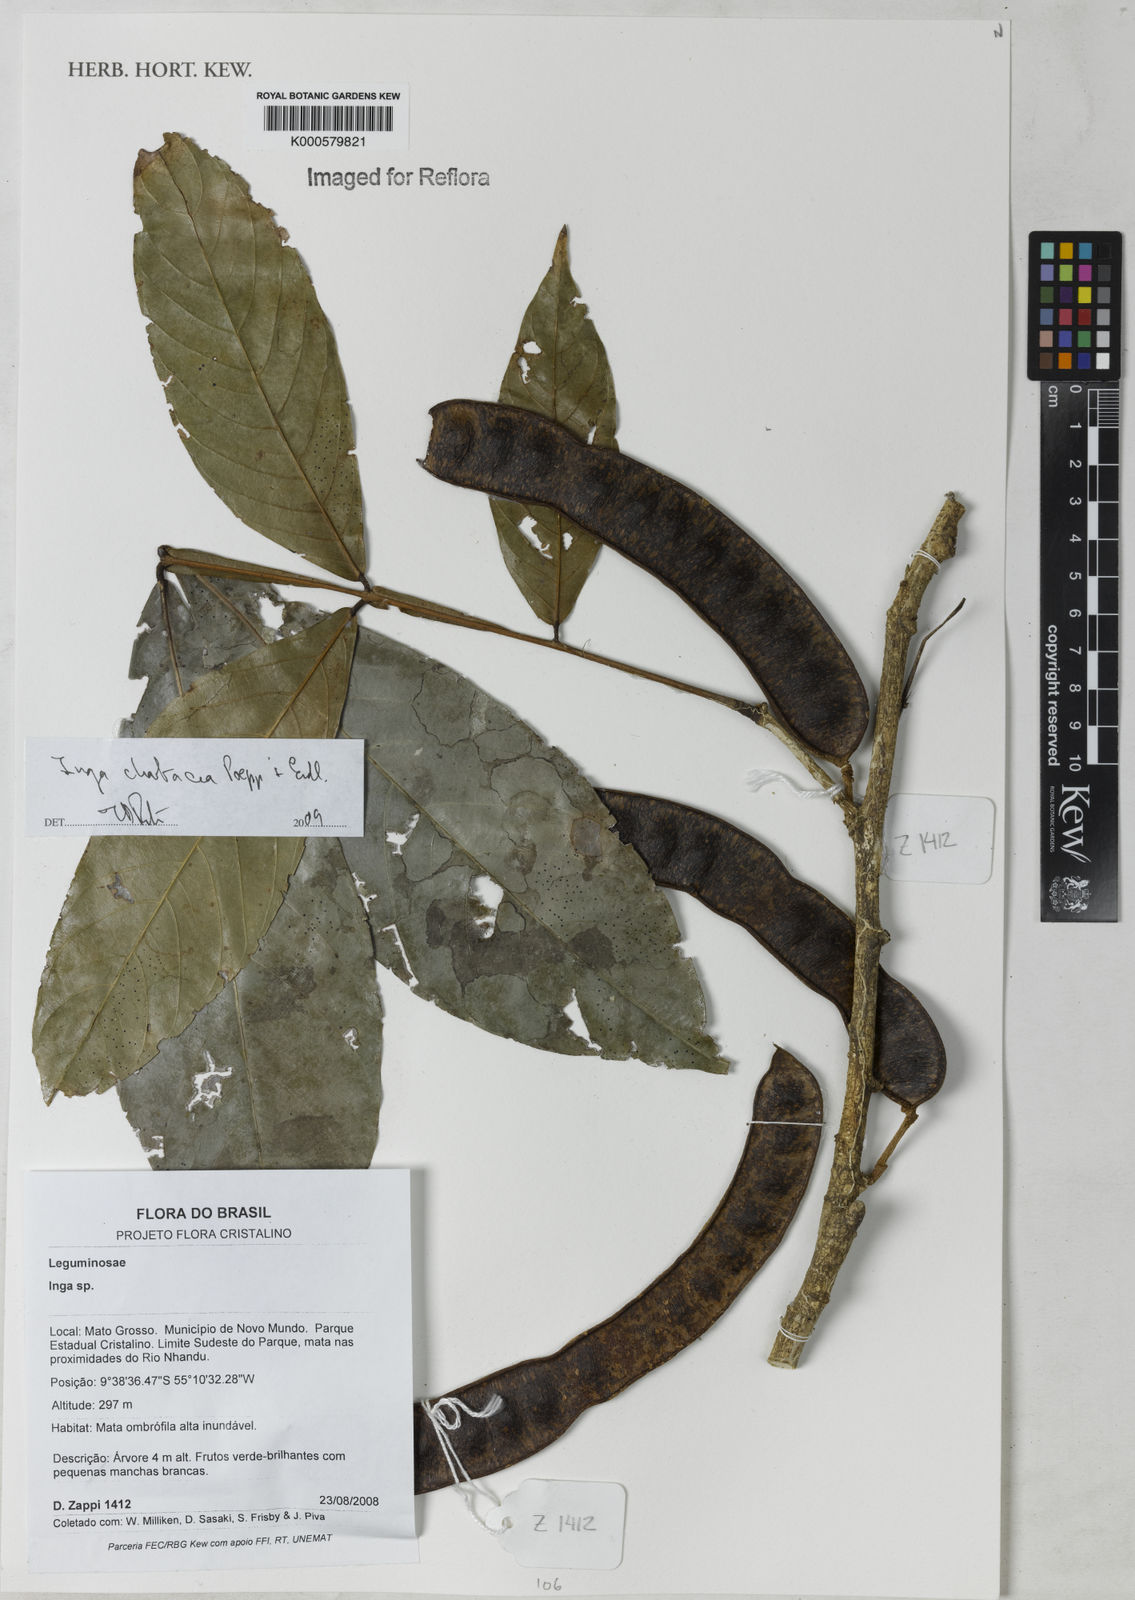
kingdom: Plantae
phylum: Tracheophyta
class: Magnoliopsida
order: Fabales
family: Fabaceae
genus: Inga
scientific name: Inga chartacea
